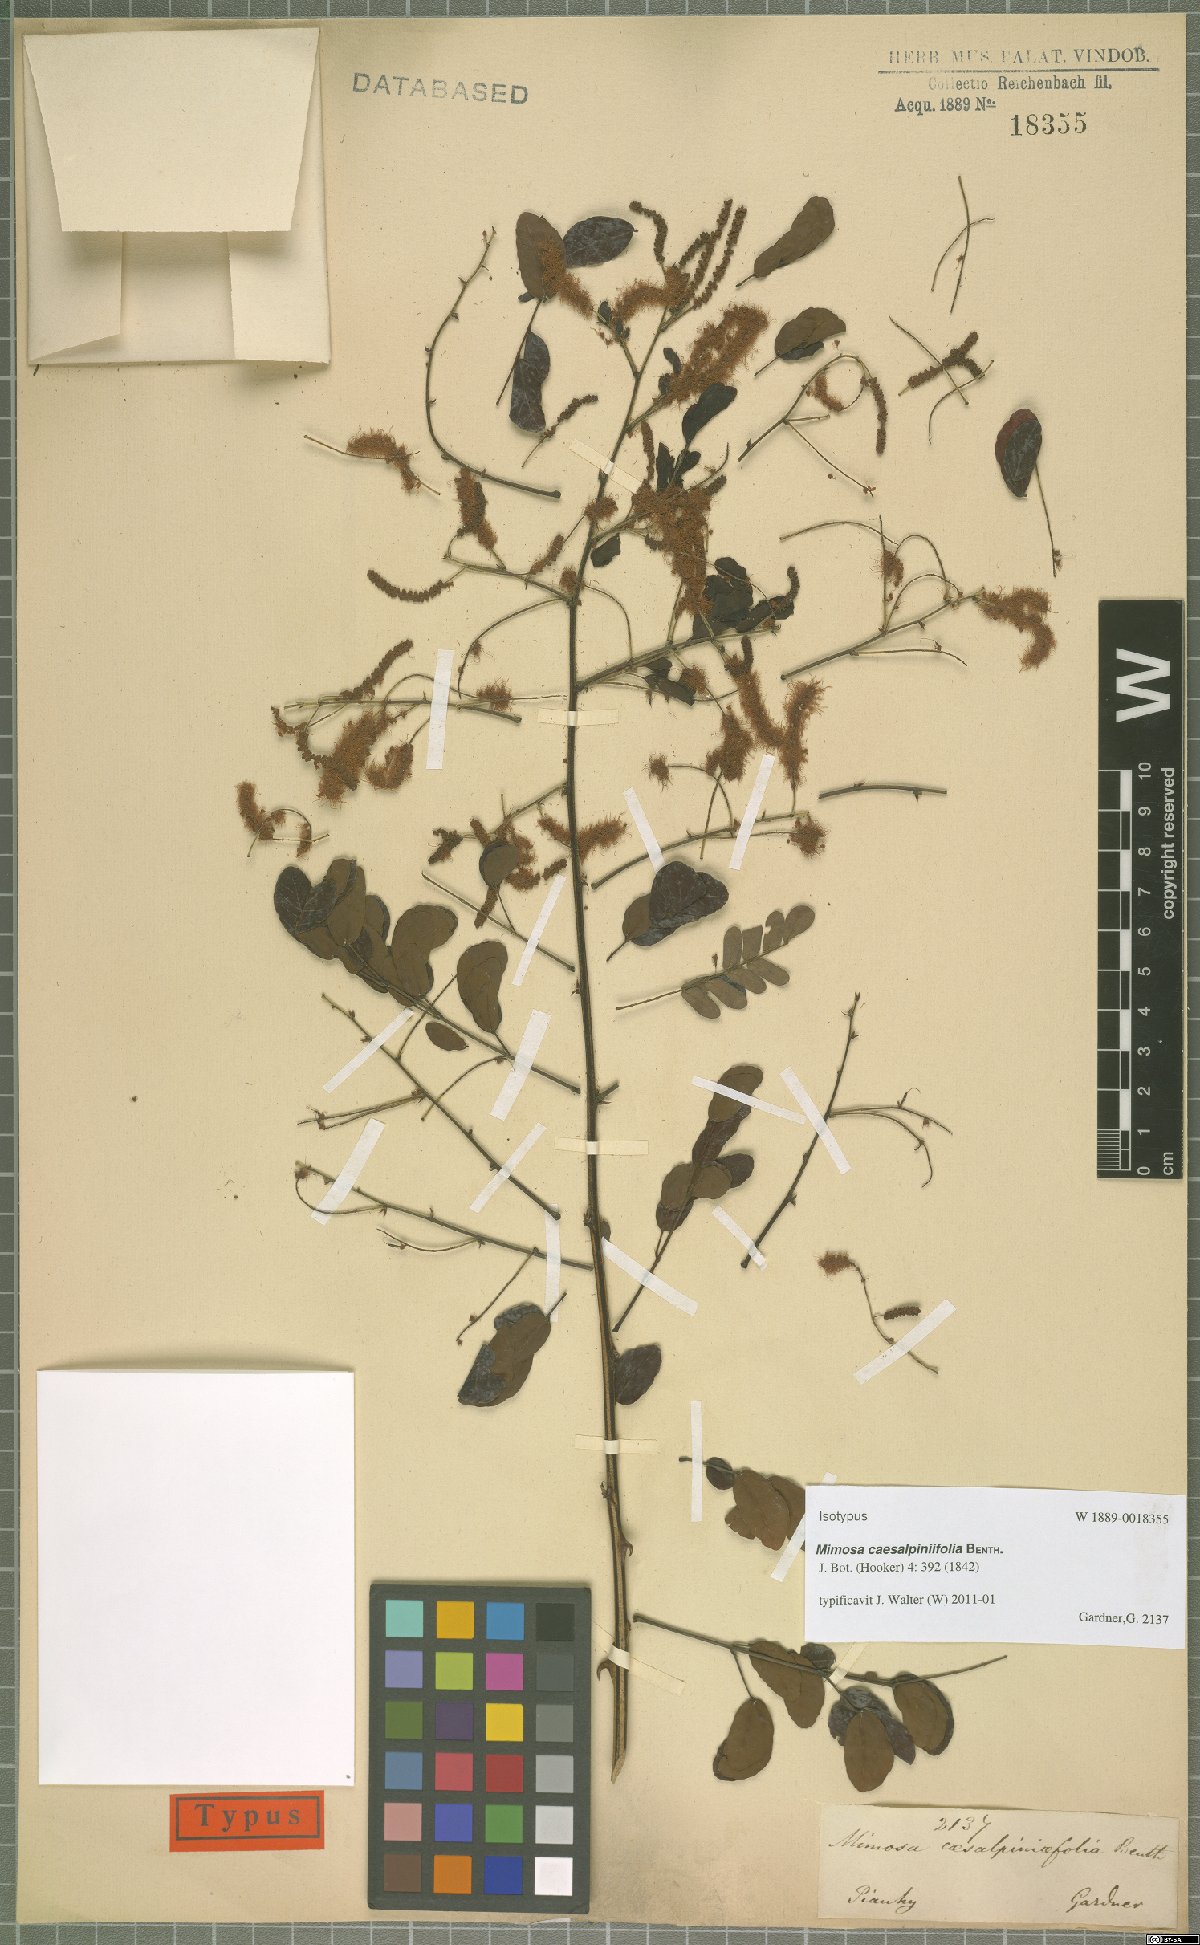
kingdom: Plantae
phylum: Tracheophyta
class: Magnoliopsida
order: Fabales
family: Fabaceae
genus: Mimosa
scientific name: Mimosa caesalpiniifolia
